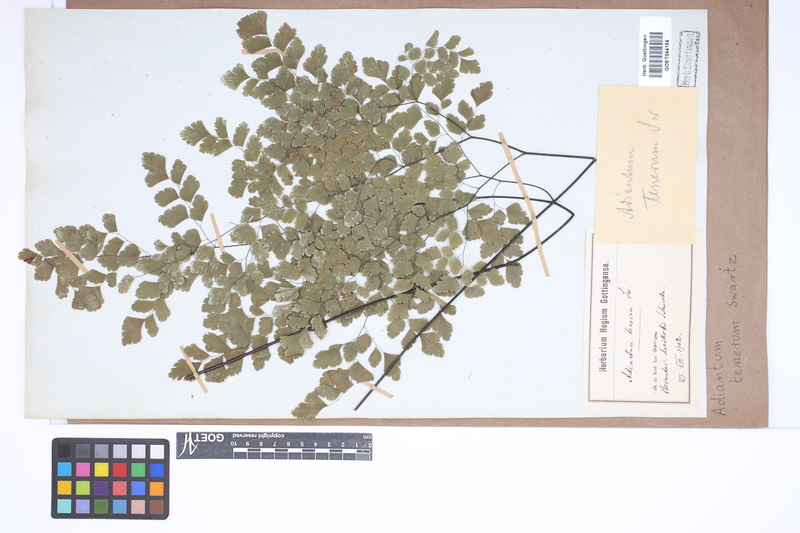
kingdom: Plantae
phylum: Tracheophyta
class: Polypodiopsida
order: Polypodiales
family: Pteridaceae
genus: Adiantum
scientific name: Adiantum tenerum
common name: Fan maidenhair
